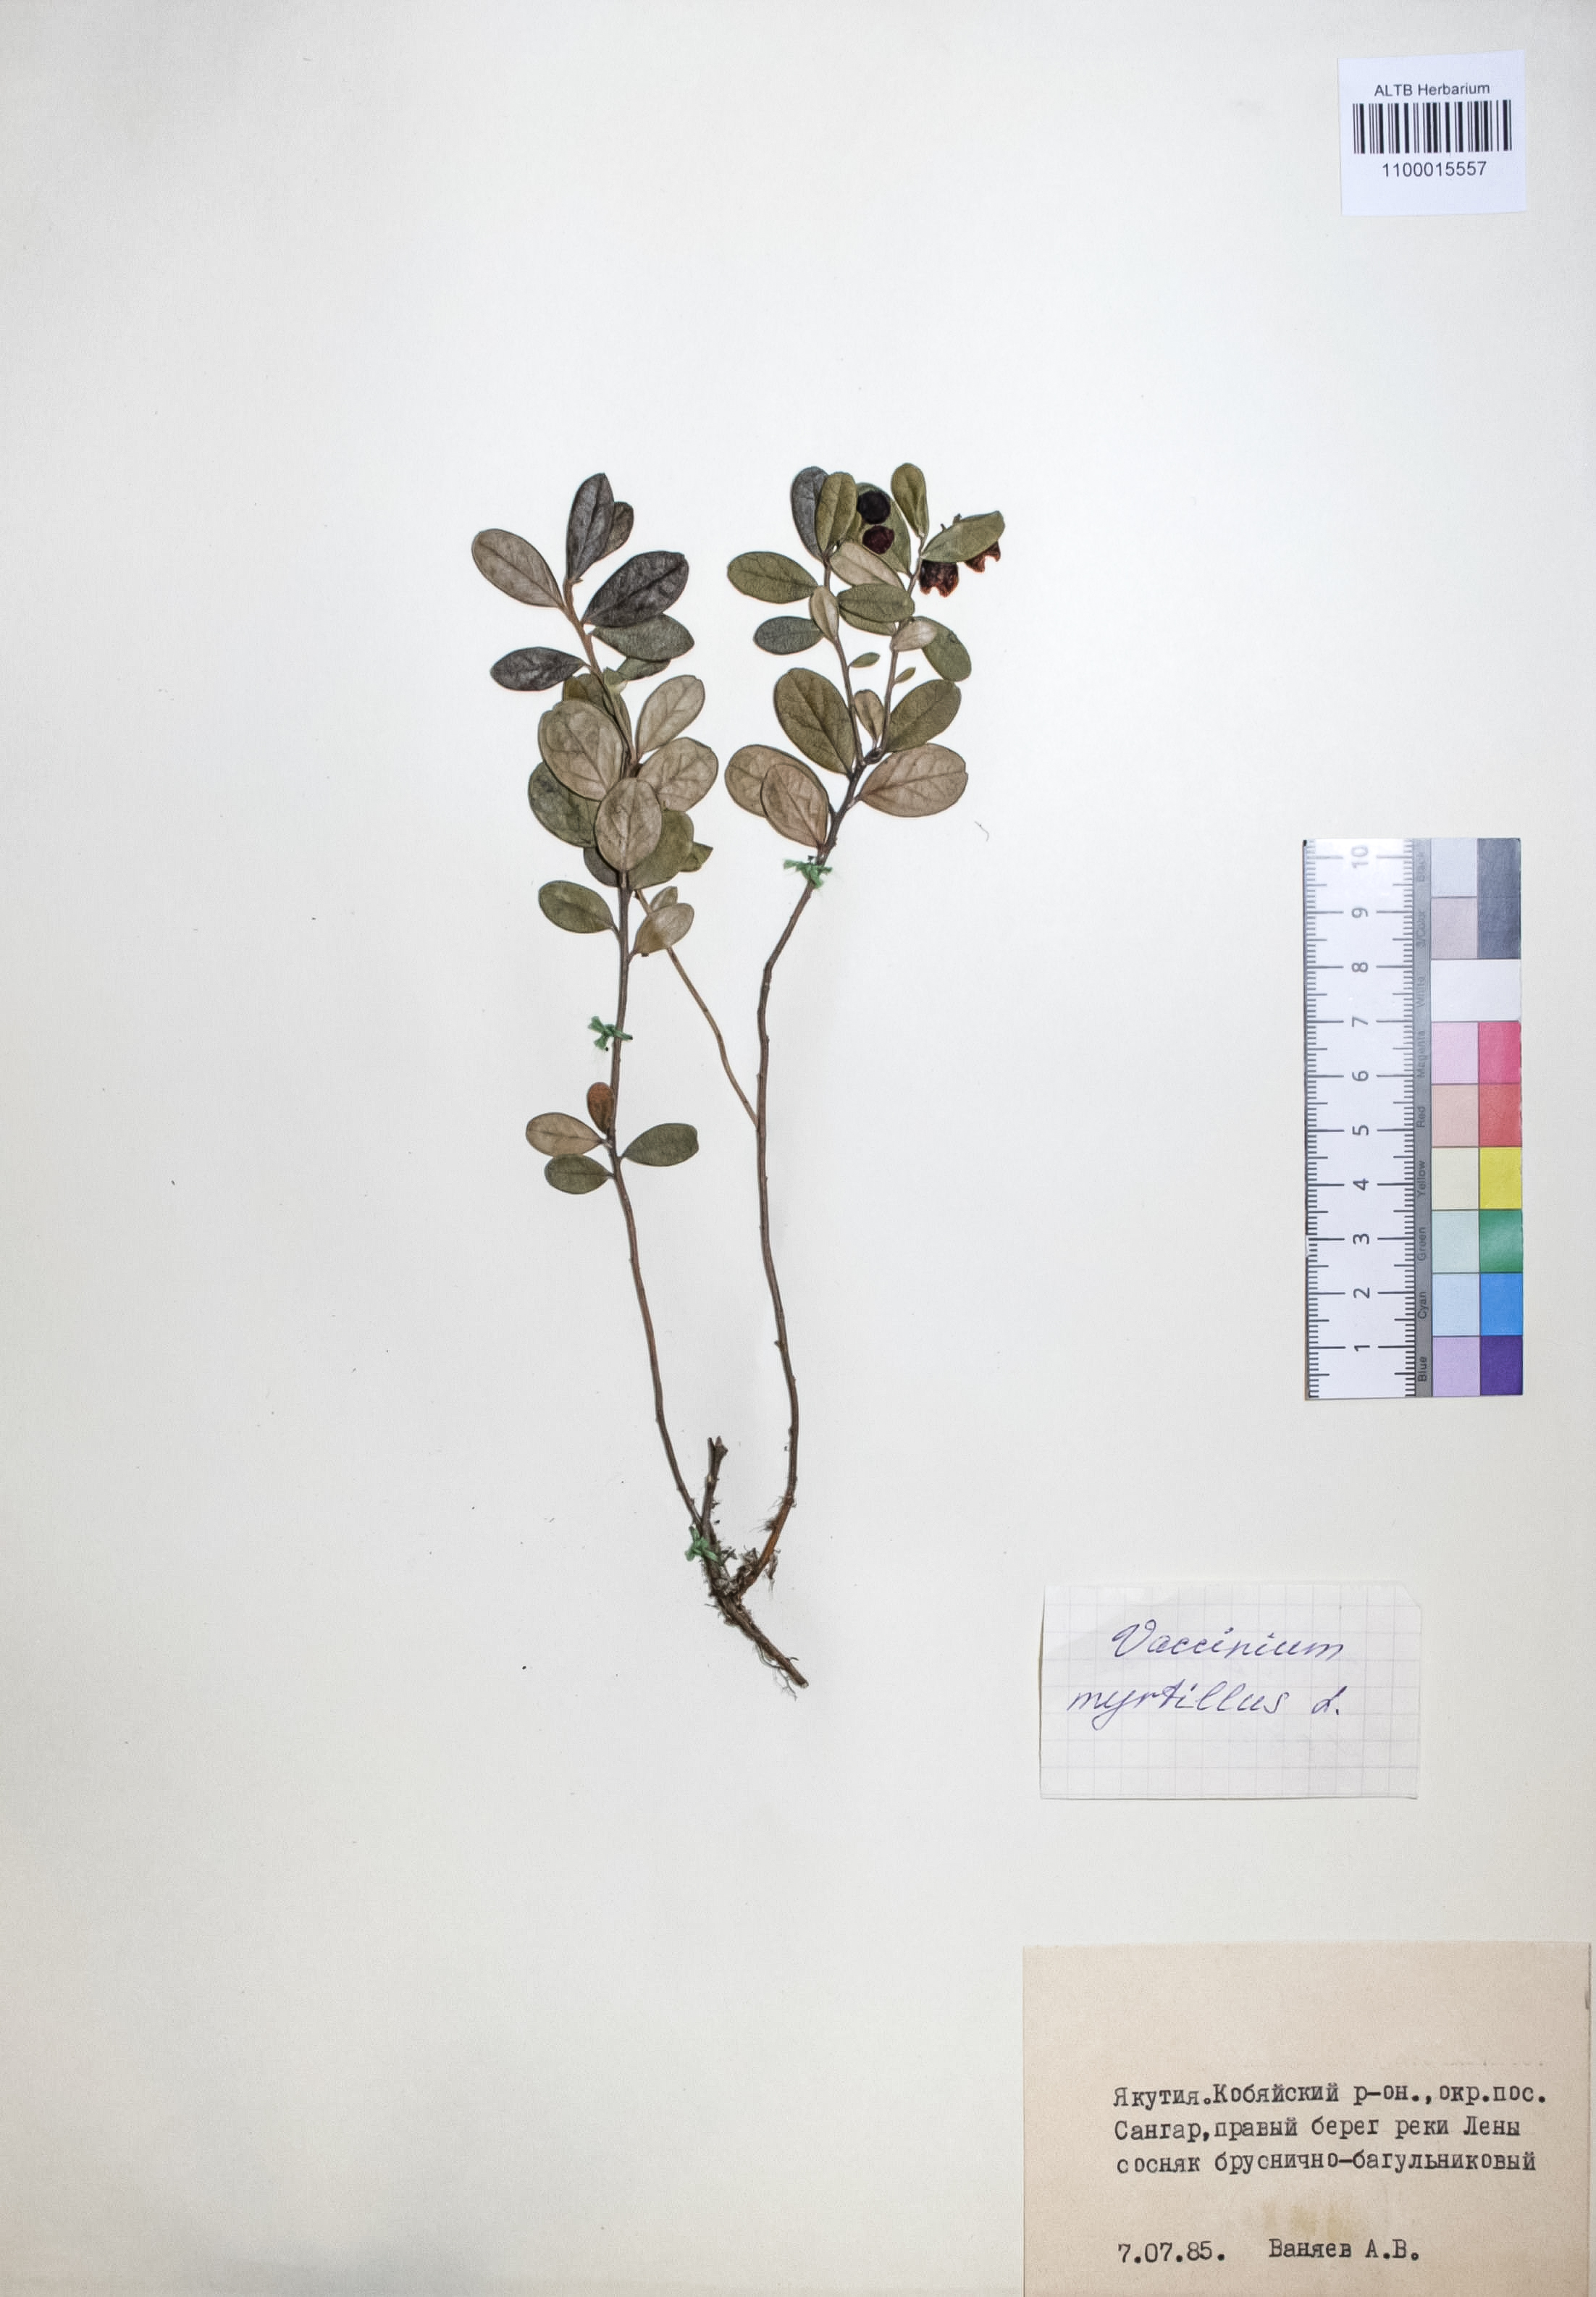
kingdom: Plantae
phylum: Tracheophyta
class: Magnoliopsida
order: Ericales
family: Ericaceae
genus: Vaccinium
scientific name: Vaccinium vitis-idaea
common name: Cowberry
